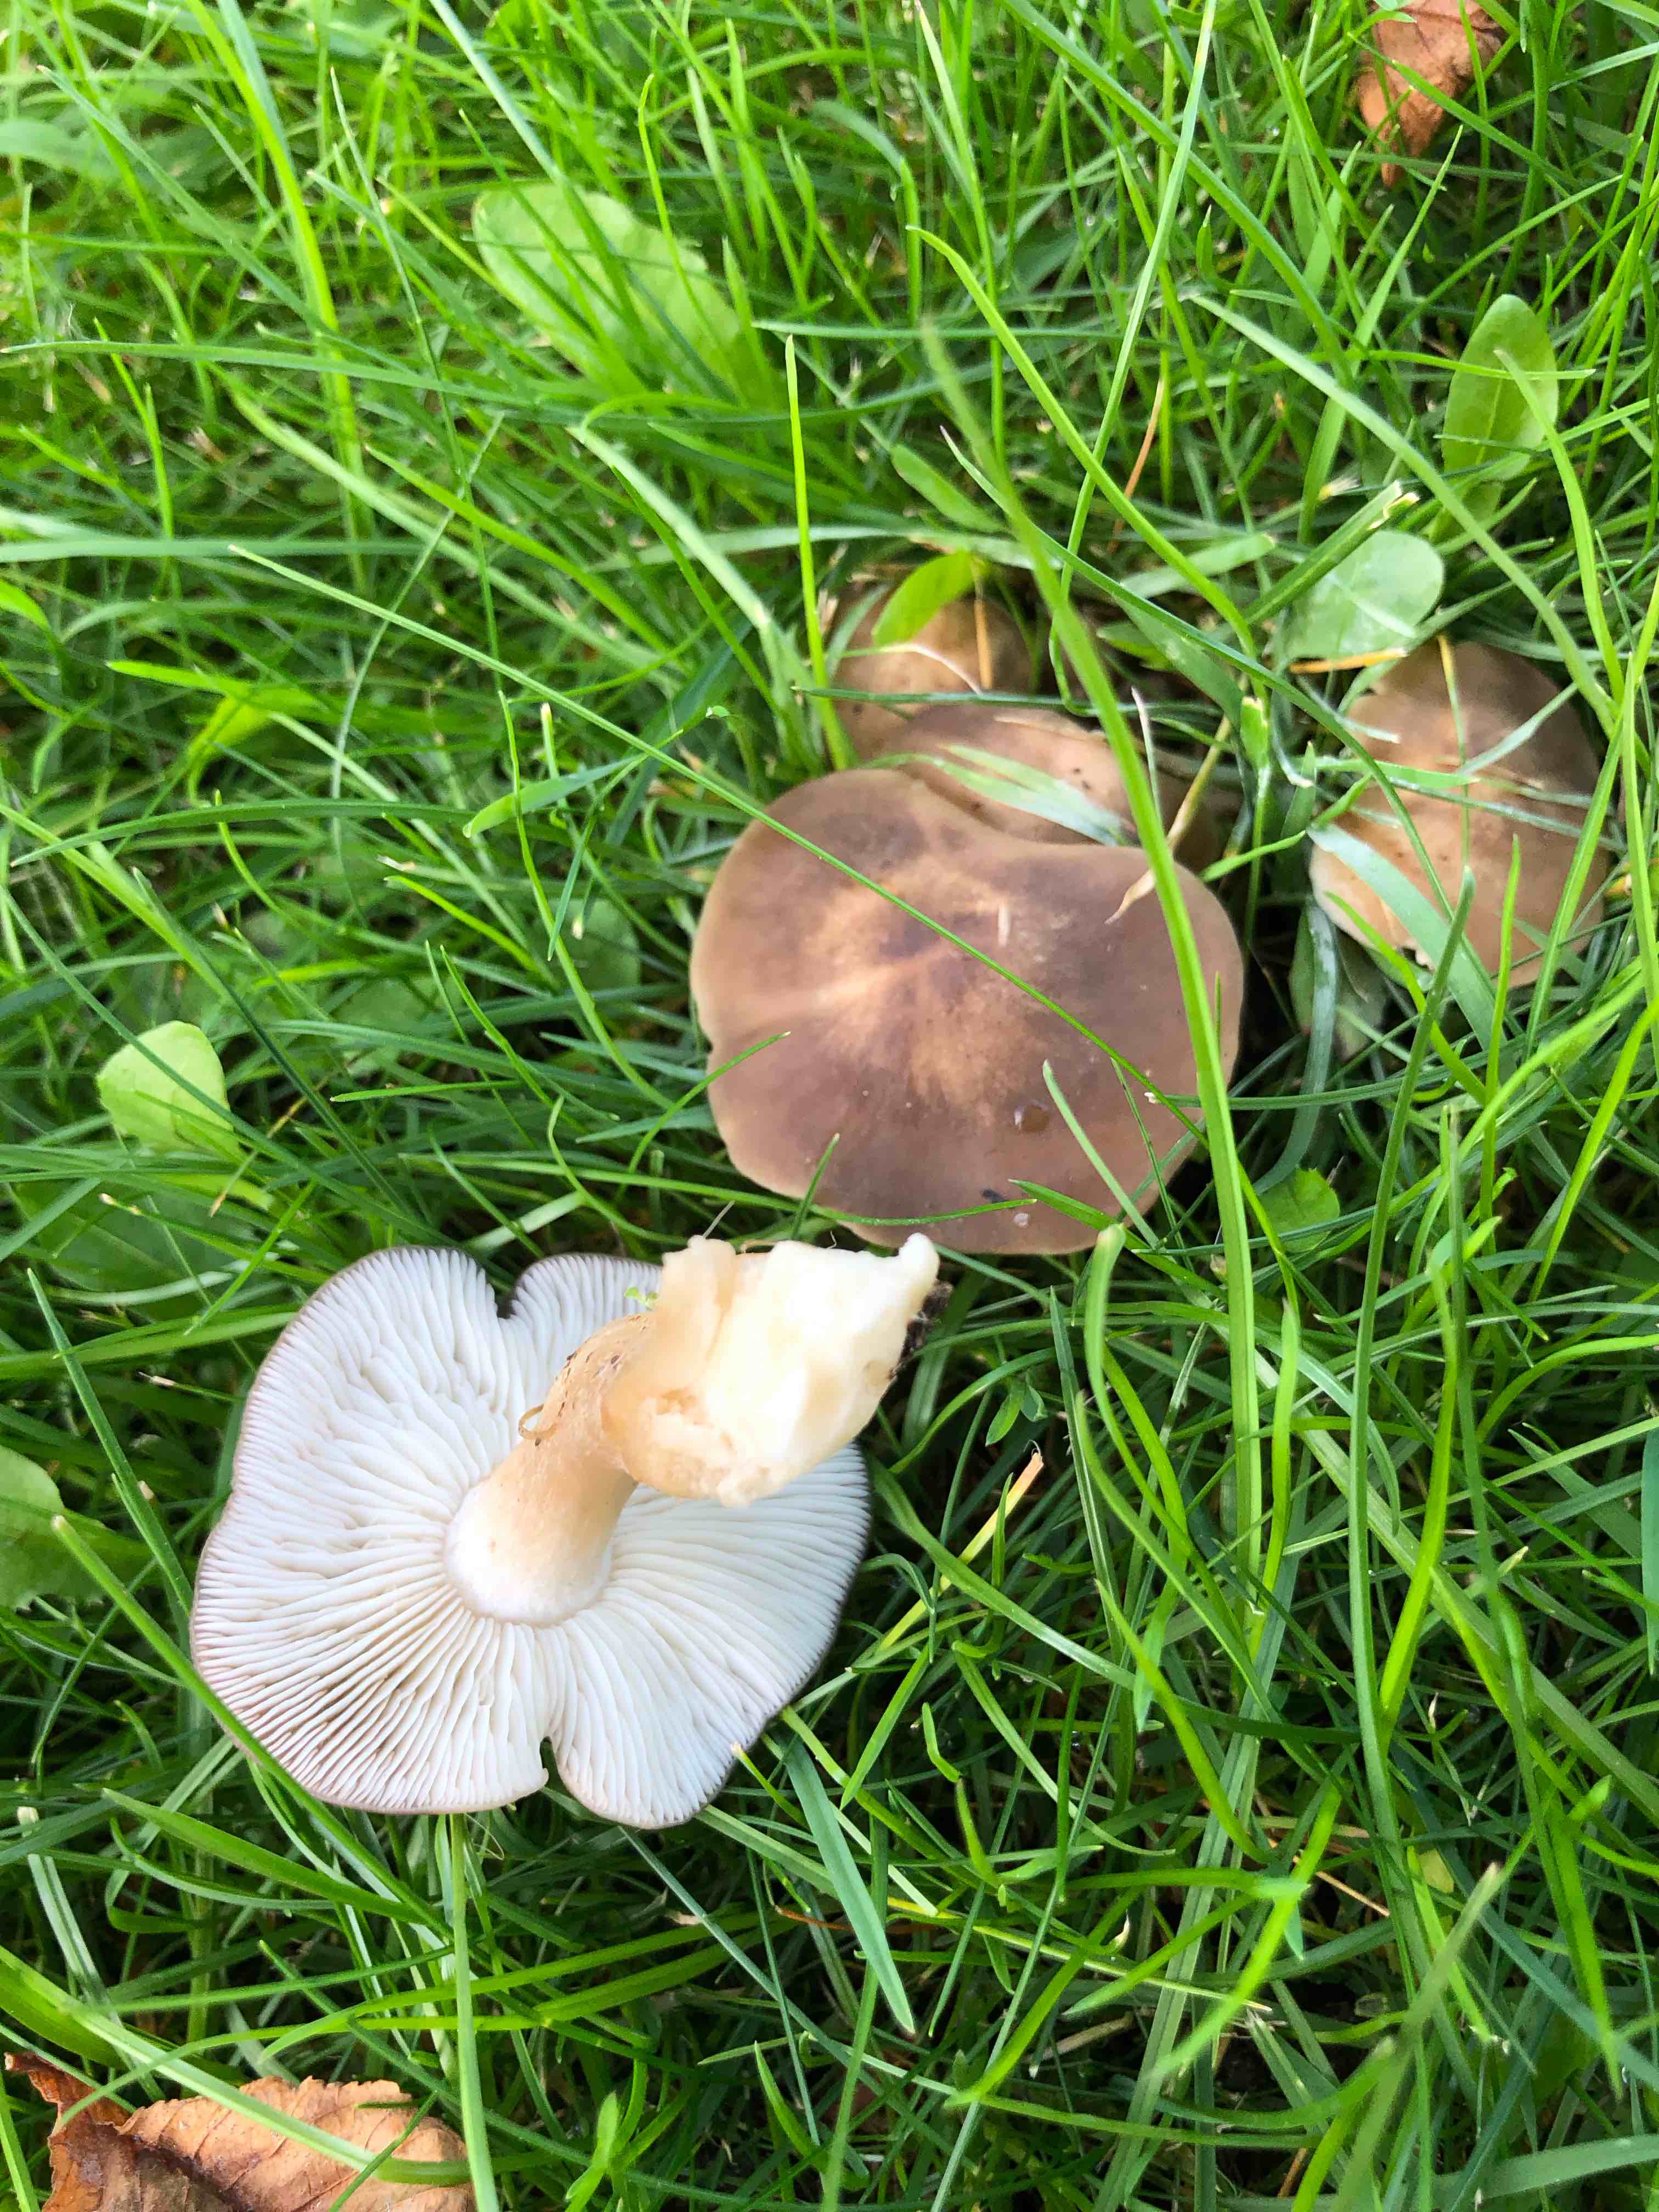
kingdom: Fungi
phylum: Basidiomycota
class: Agaricomycetes
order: Agaricales
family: Lyophyllaceae
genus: Lyophyllum
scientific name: Lyophyllum
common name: gråblad
